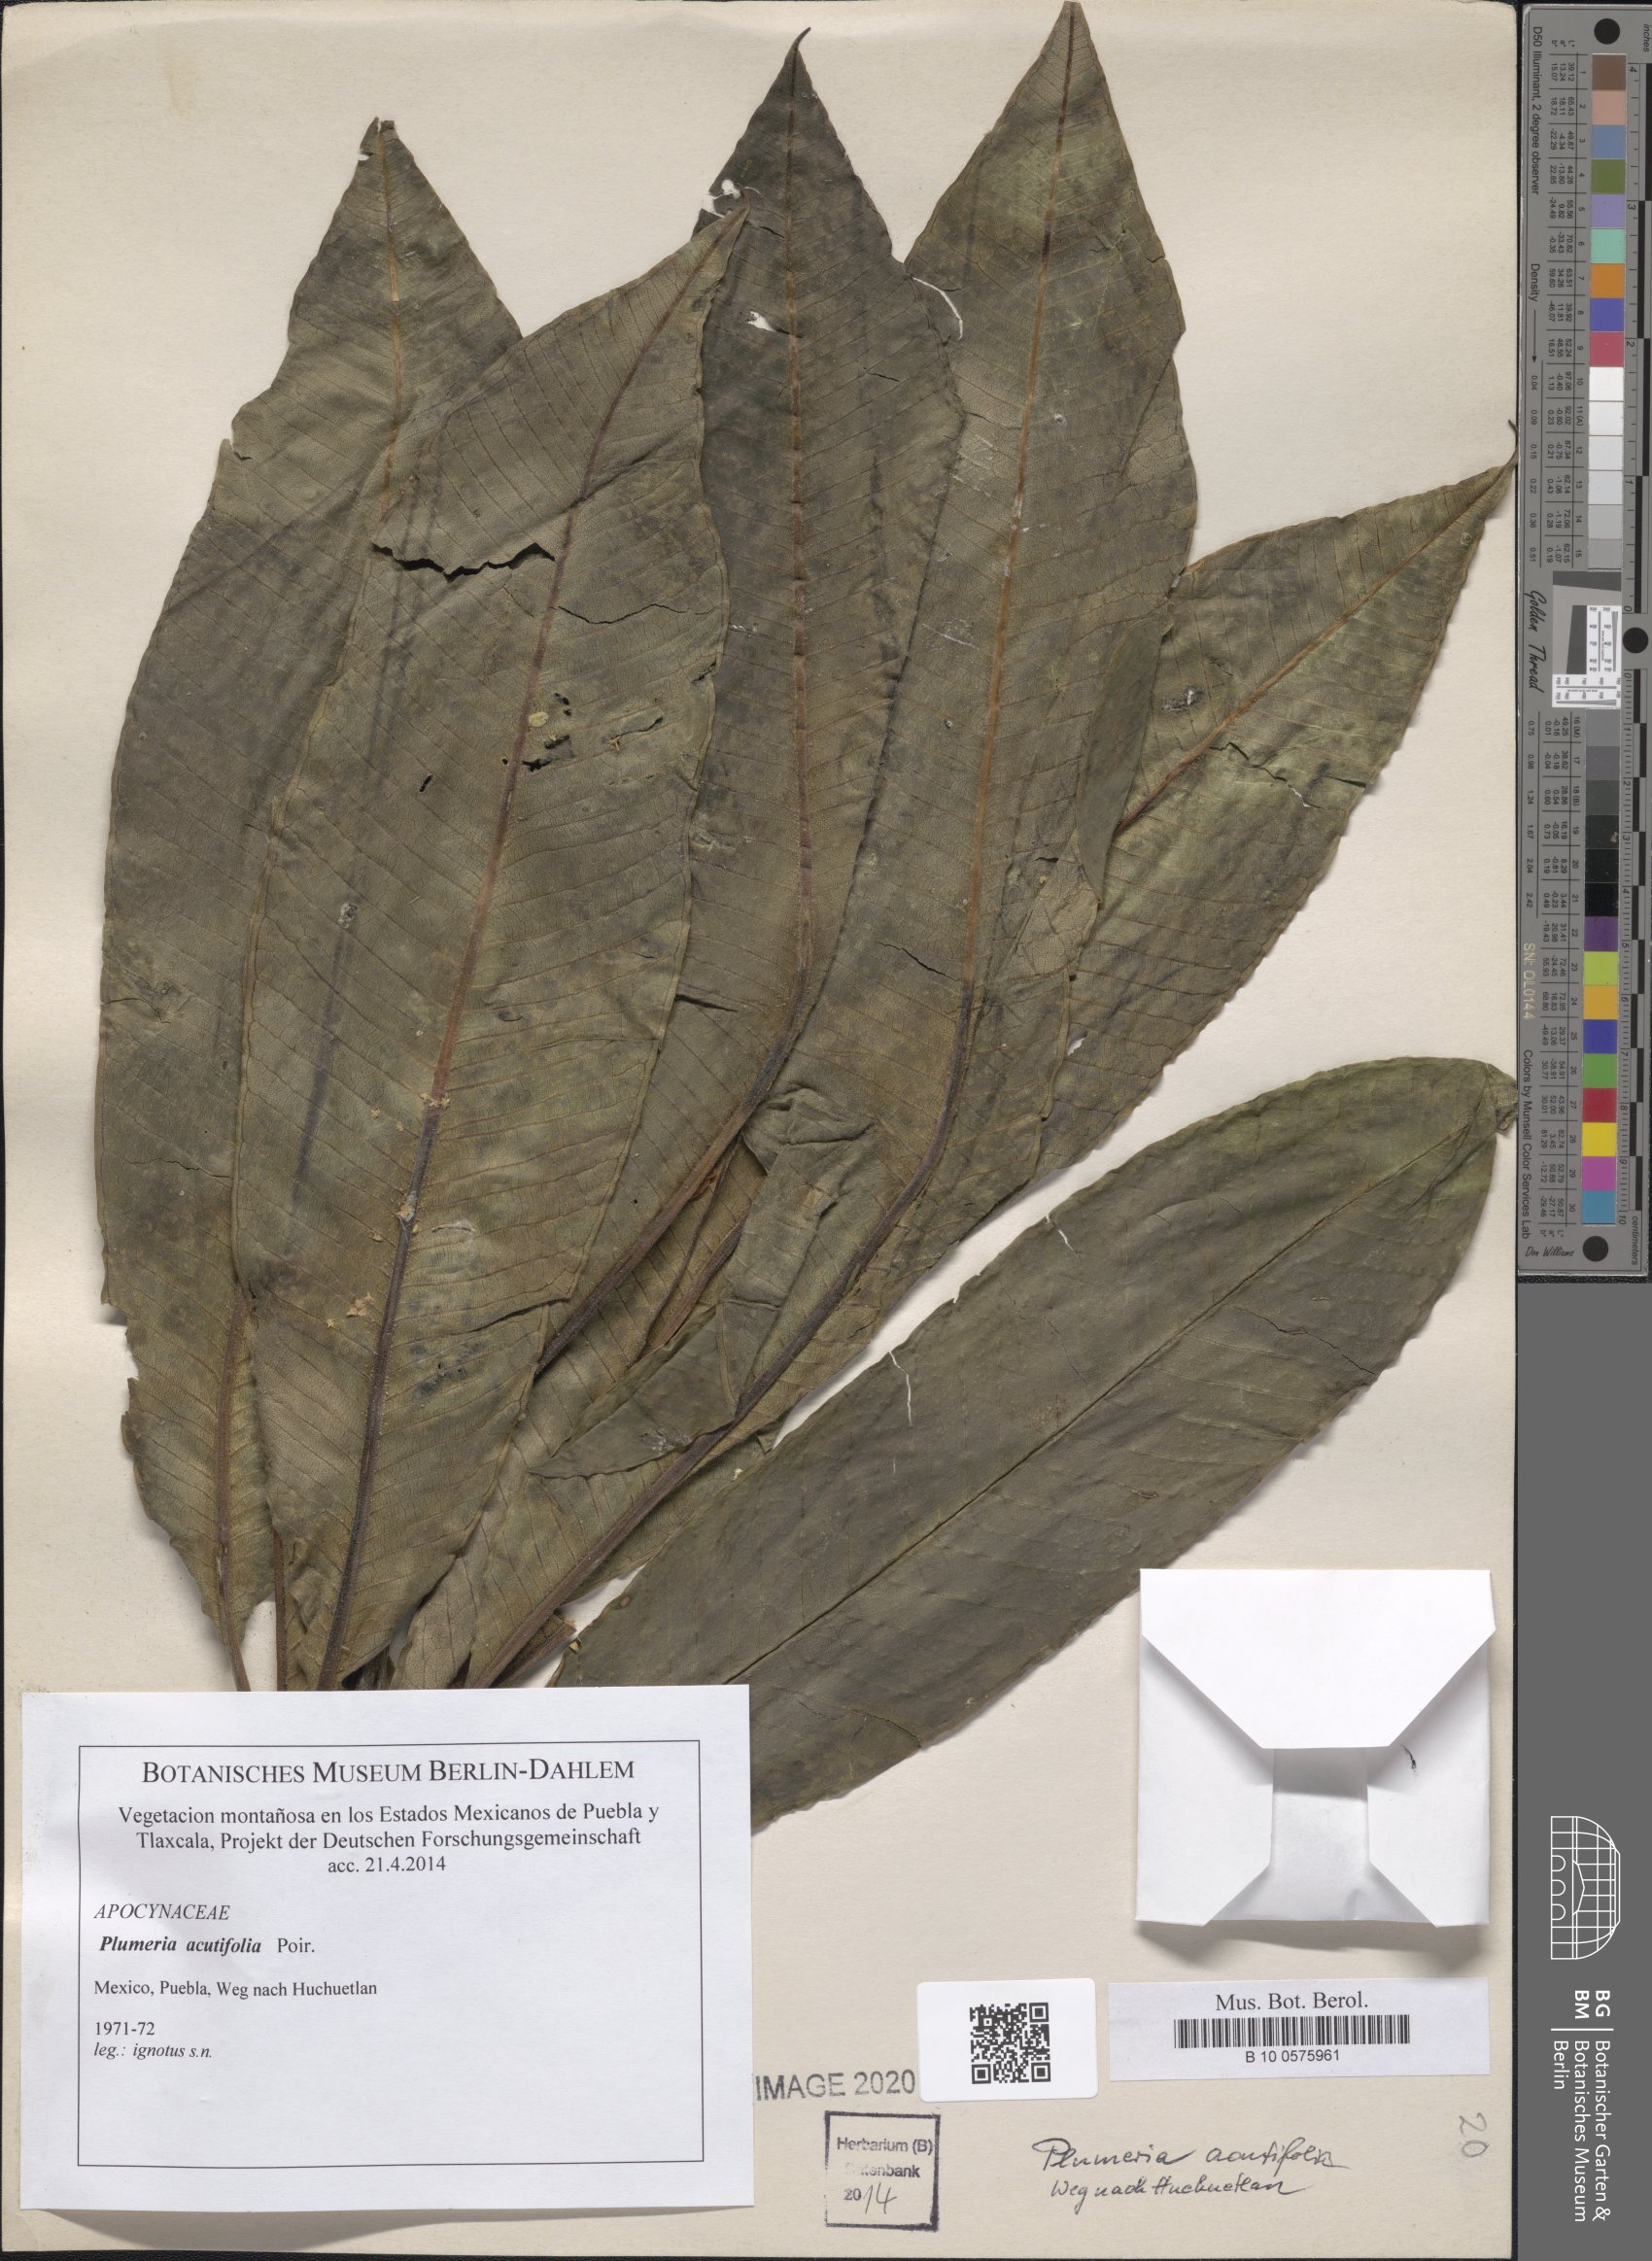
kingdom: Plantae
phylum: Tracheophyta
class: Magnoliopsida
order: Gentianales
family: Apocynaceae
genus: Plumeria
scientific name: Plumeria rubra
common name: Pagoda-tree
